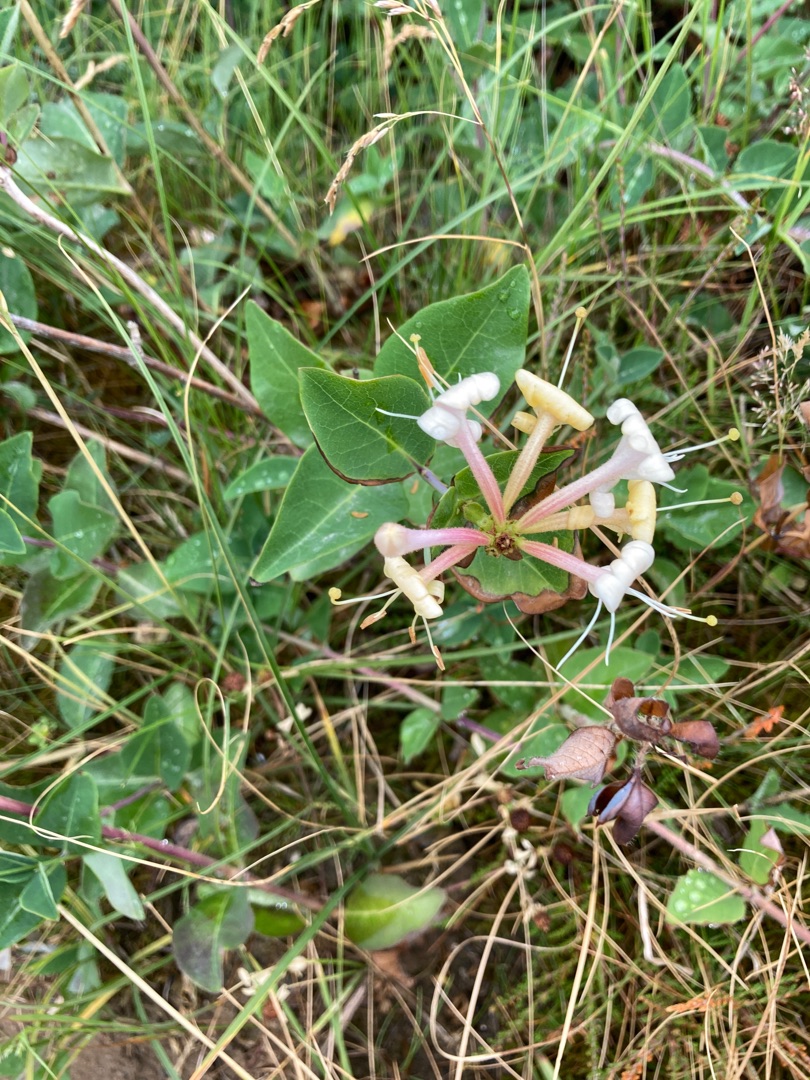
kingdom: Plantae
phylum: Tracheophyta
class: Magnoliopsida
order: Dipsacales
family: Caprifoliaceae
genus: Lonicera
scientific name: Lonicera periclymenum
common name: Almindelig gedeblad
